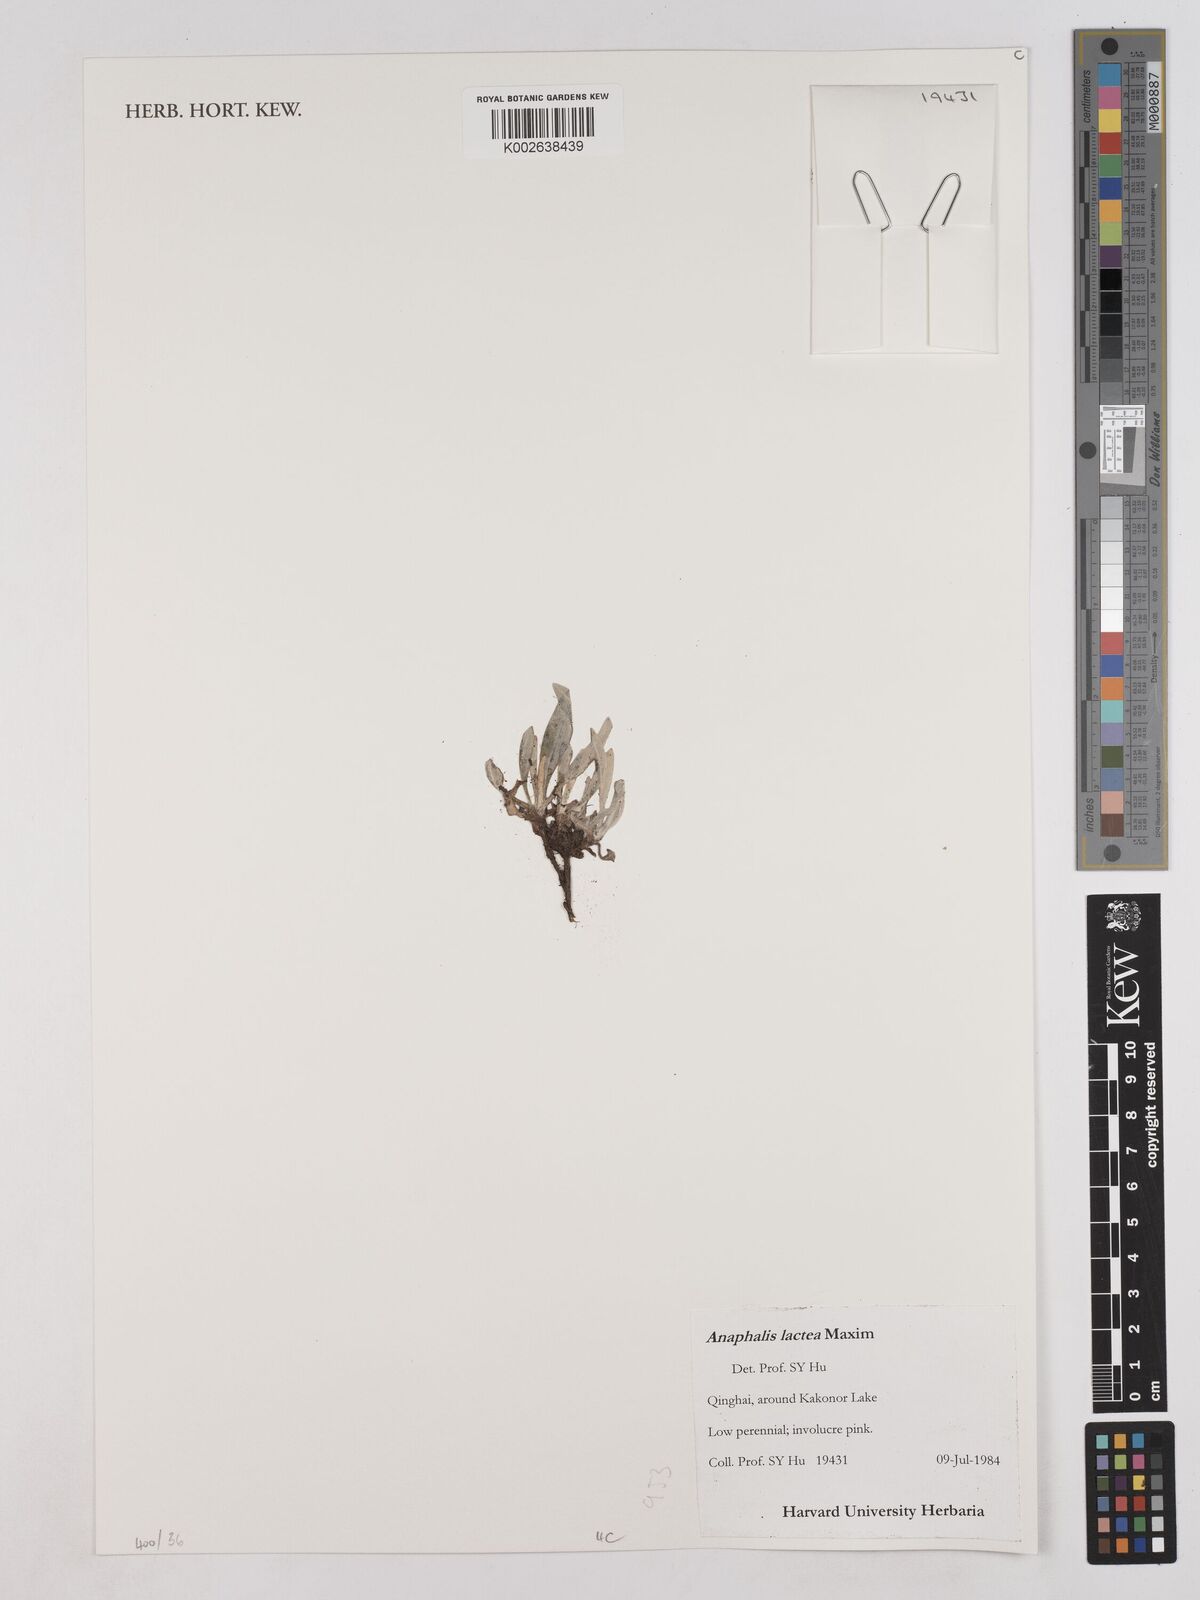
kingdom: Plantae
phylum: Tracheophyta
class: Magnoliopsida
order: Asterales
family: Asteraceae
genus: Anaphalis
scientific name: Anaphalis lactea
